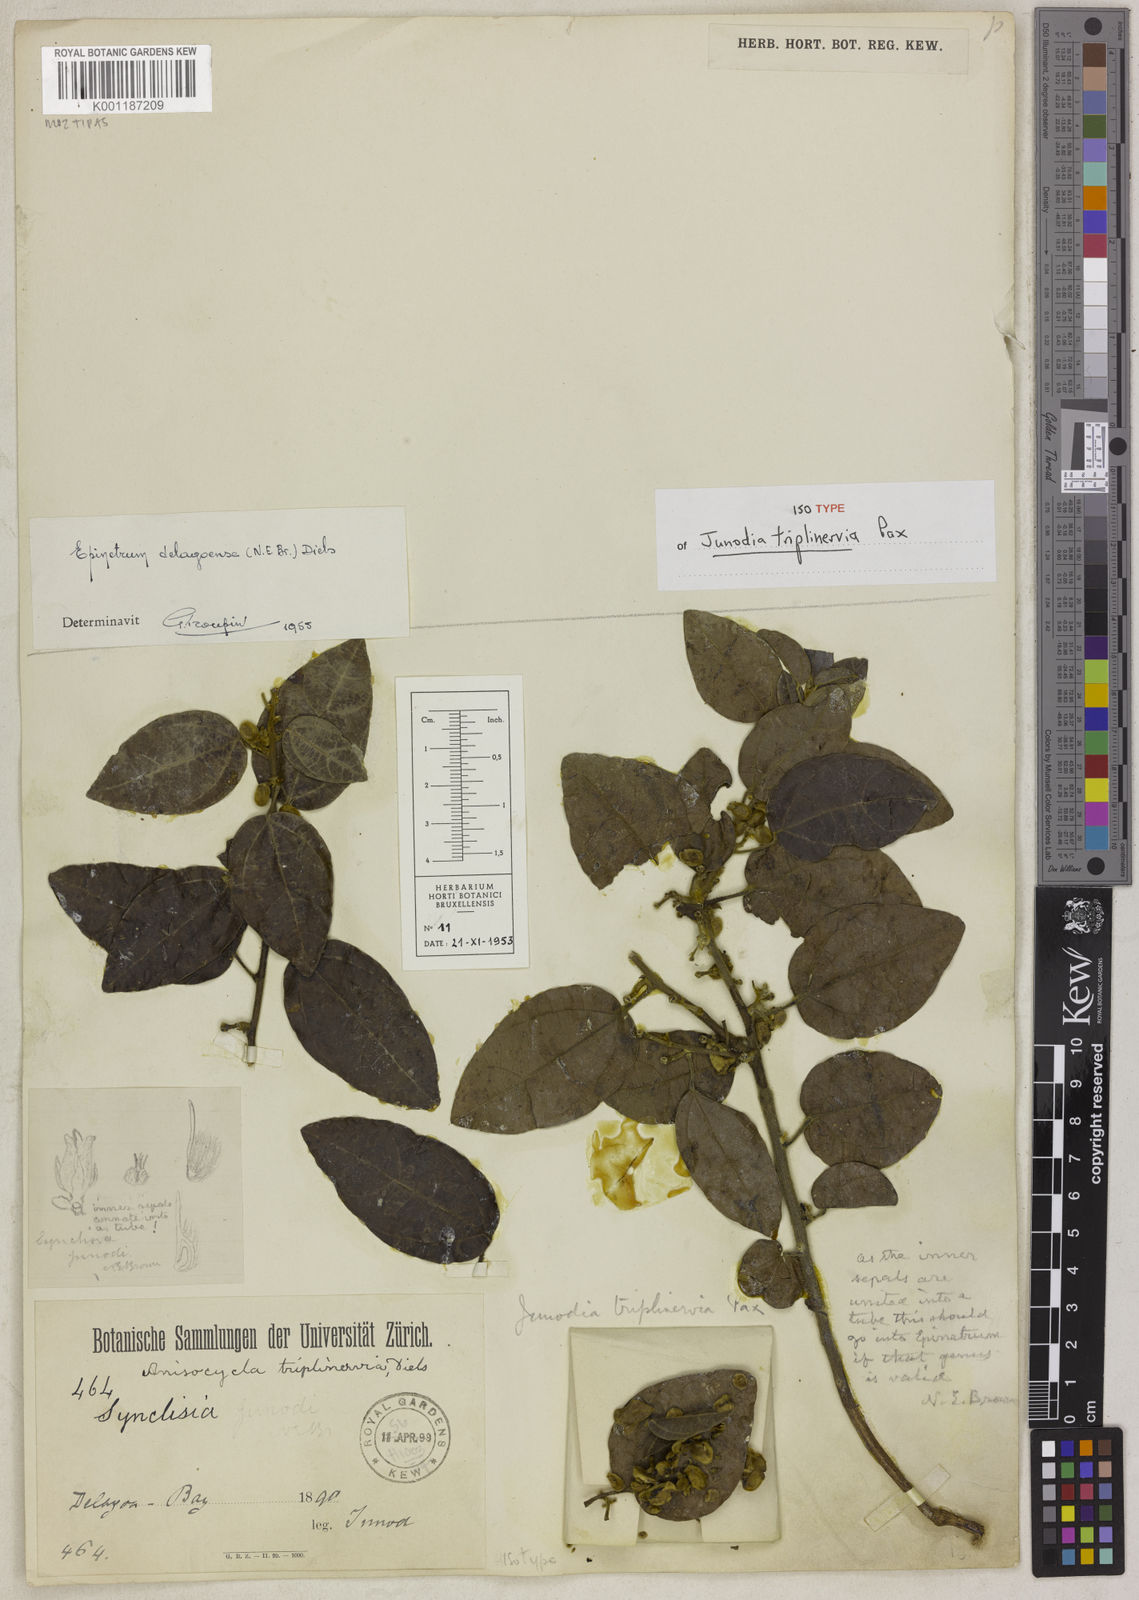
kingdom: Plantae
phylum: Tracheophyta
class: Magnoliopsida
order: Ranunculales
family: Menispermaceae
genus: Albertisia
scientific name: Albertisia delagoensis
